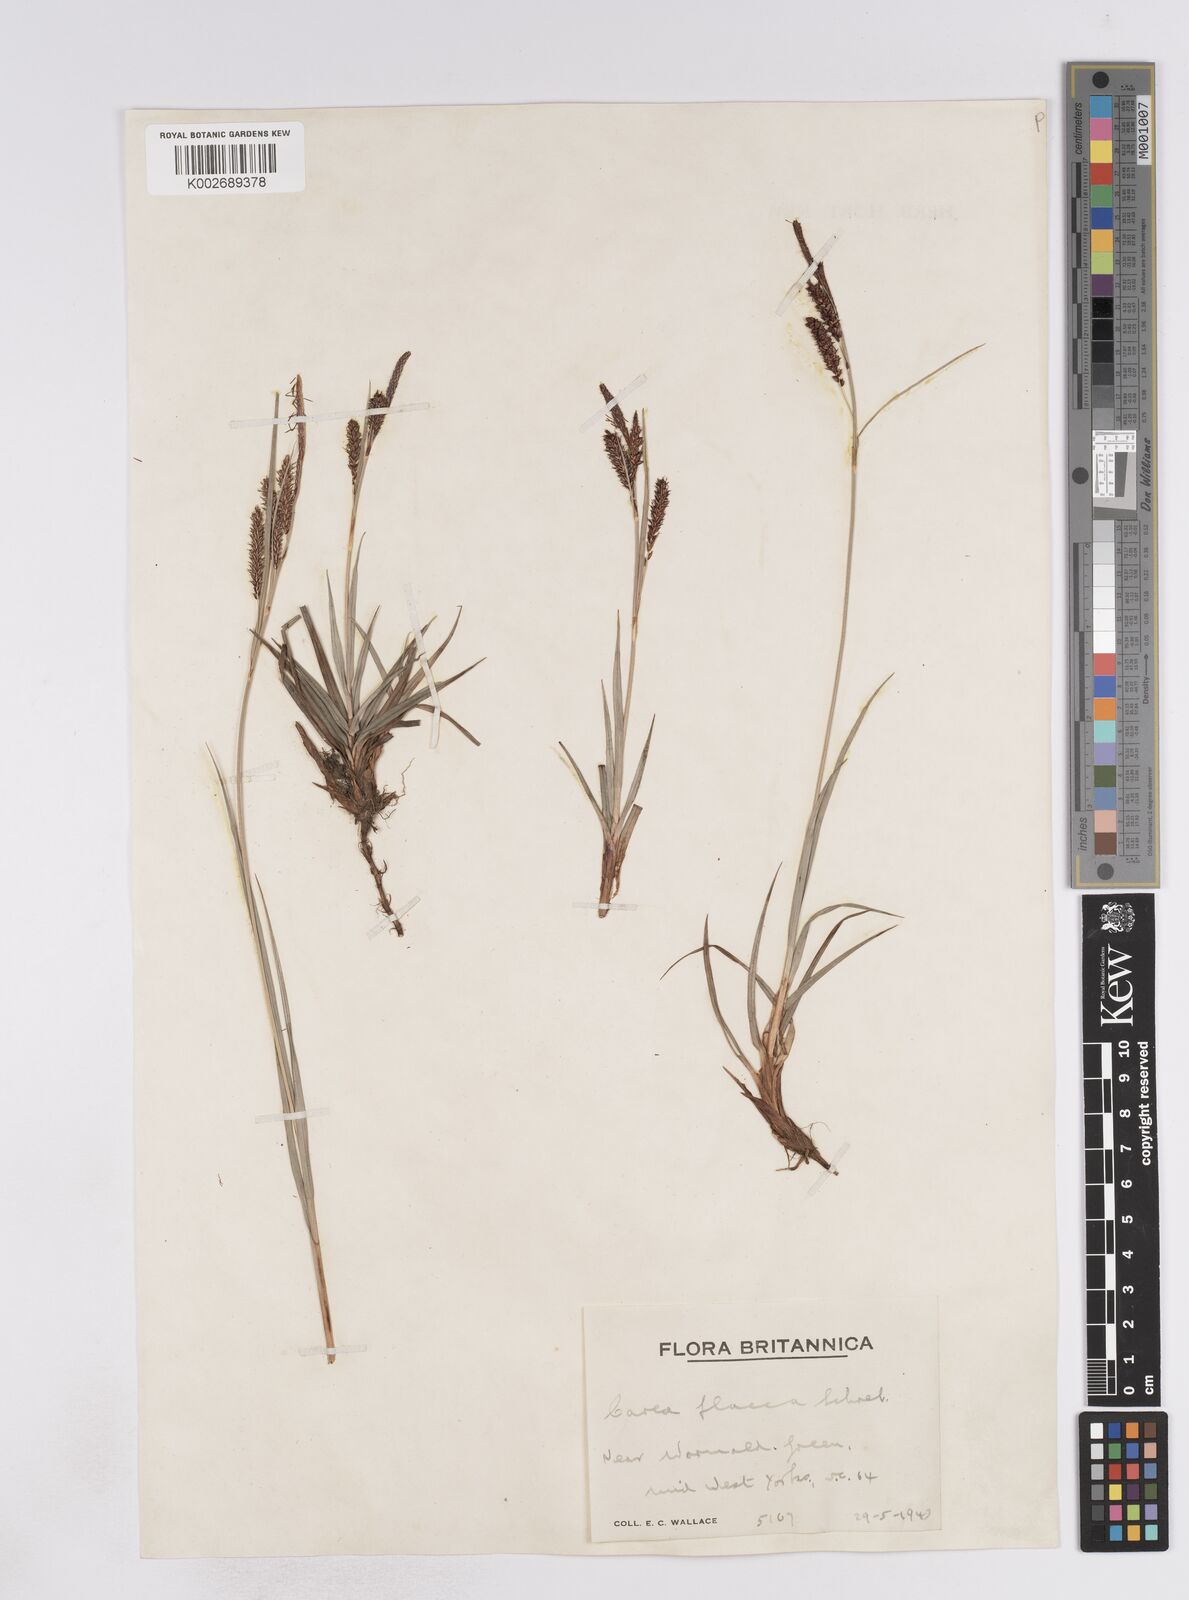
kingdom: Plantae
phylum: Tracheophyta
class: Liliopsida
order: Poales
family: Cyperaceae
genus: Carex
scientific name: Carex flacca
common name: Glaucous sedge
